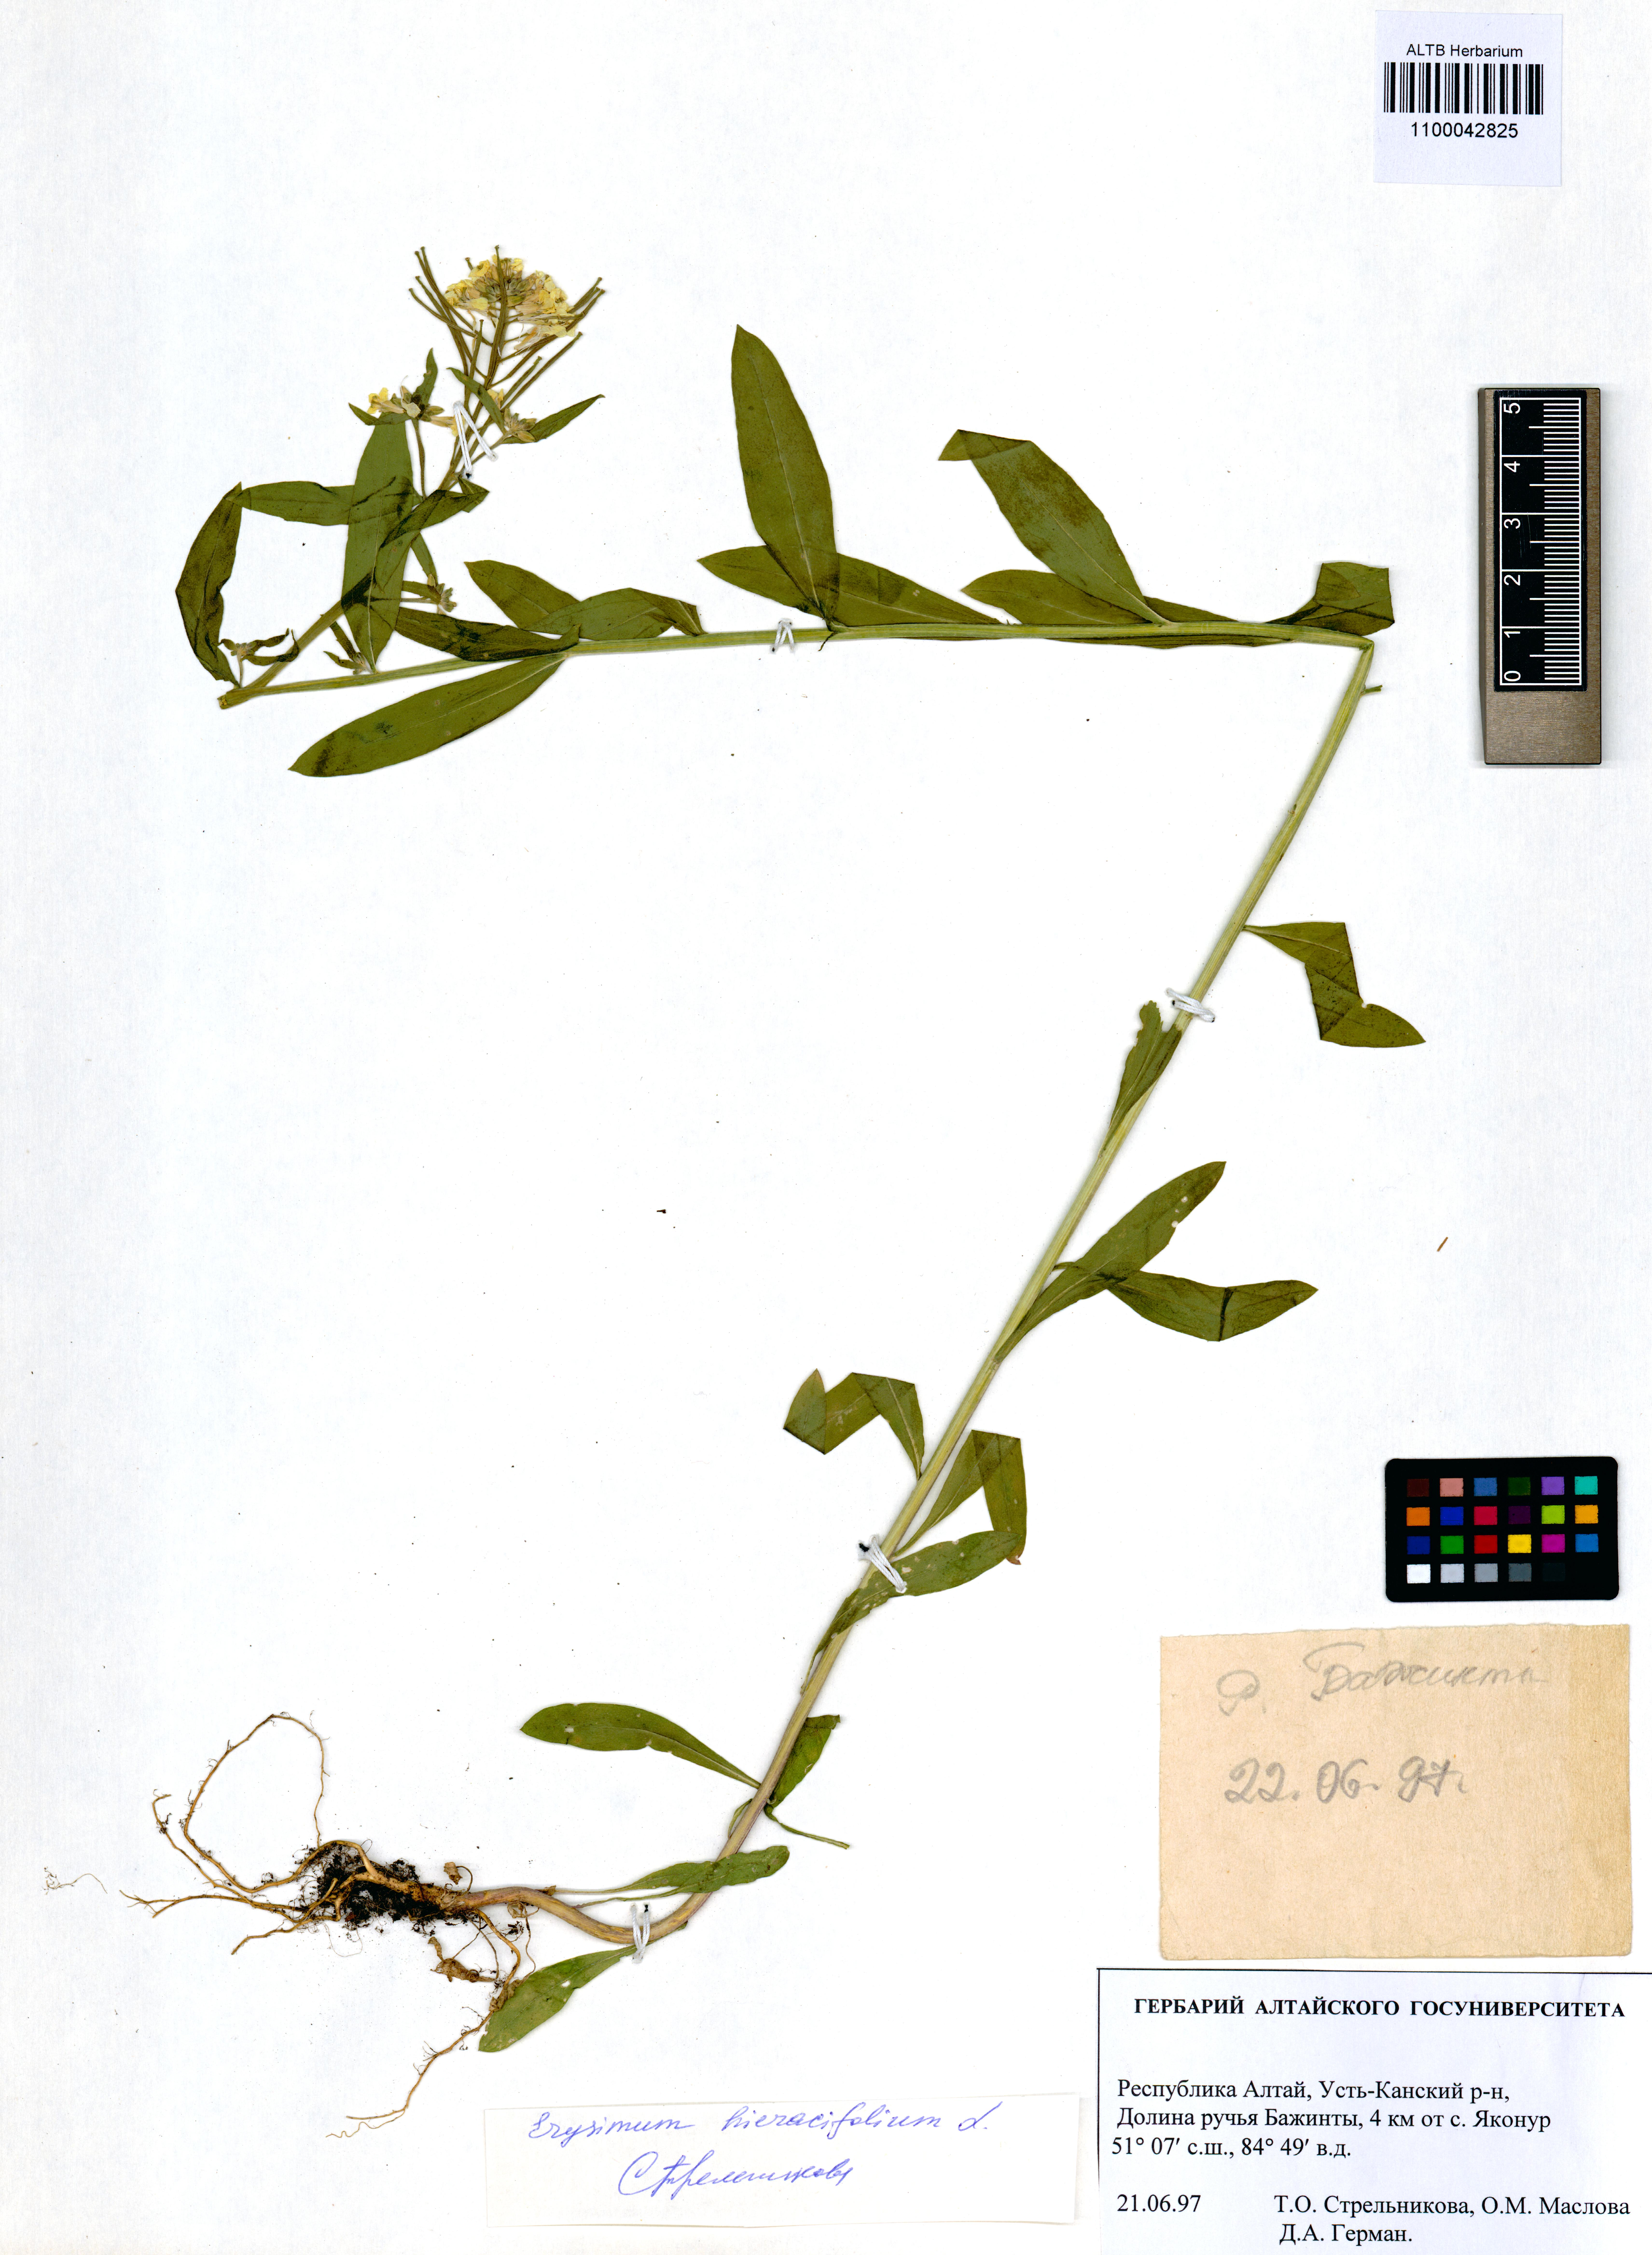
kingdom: Plantae
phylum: Tracheophyta
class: Magnoliopsida
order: Brassicales
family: Brassicaceae
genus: Erysimum
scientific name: Erysimum hieraciifolium
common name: European wallflower
